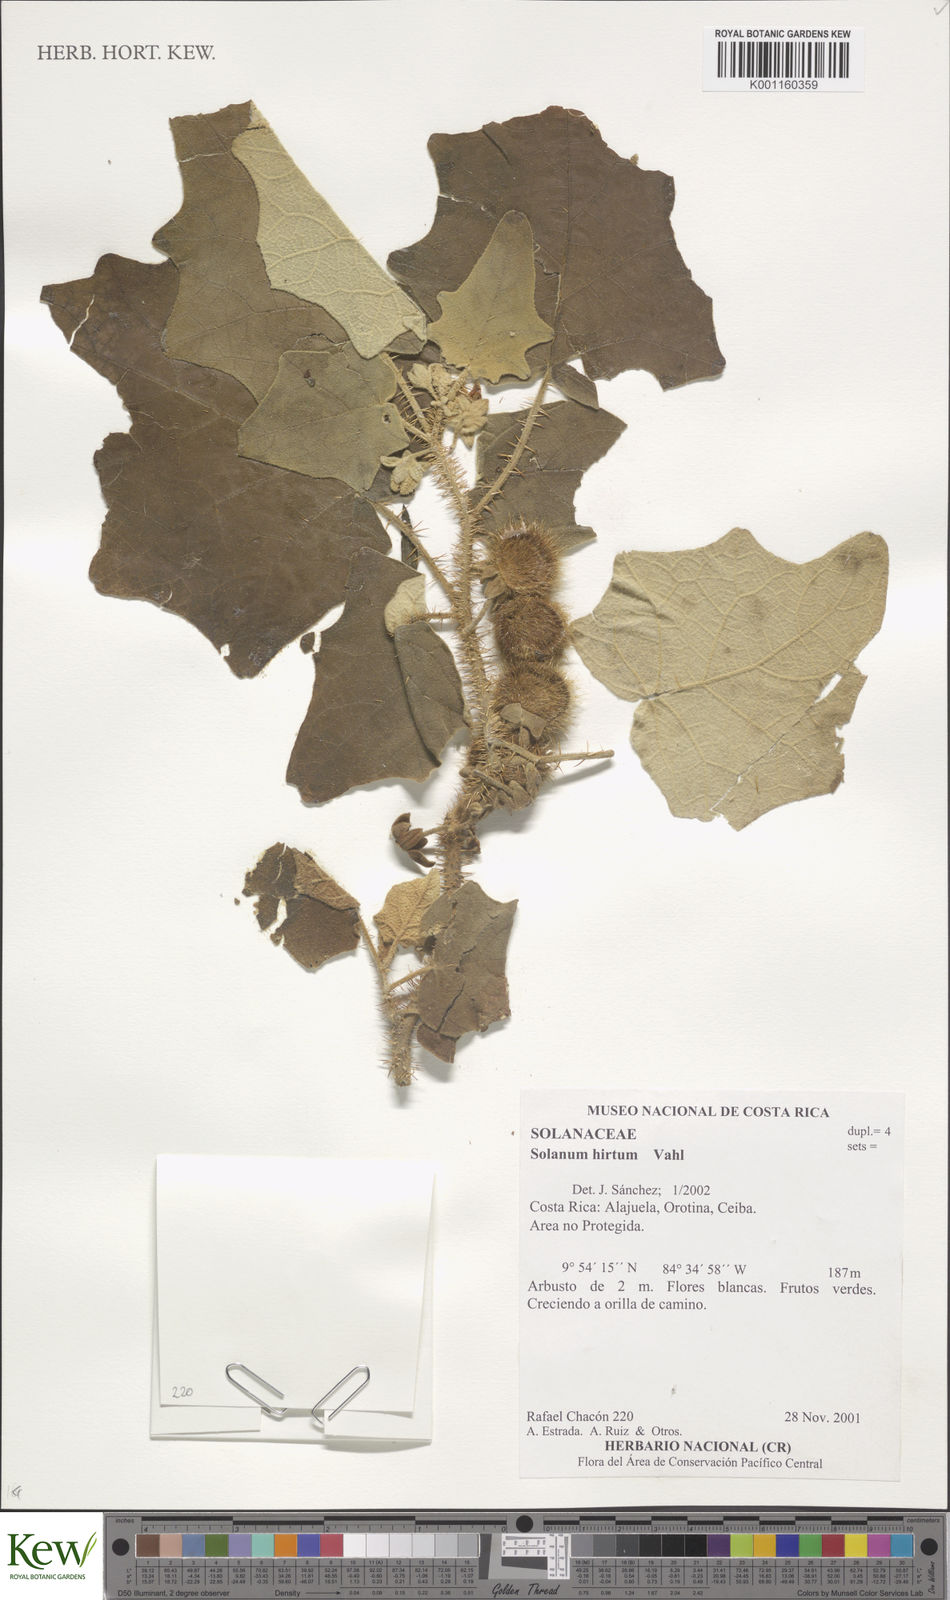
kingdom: Plantae
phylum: Tracheophyta
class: Magnoliopsida
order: Solanales
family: Solanaceae
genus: Solanum
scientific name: Solanum hirtum
